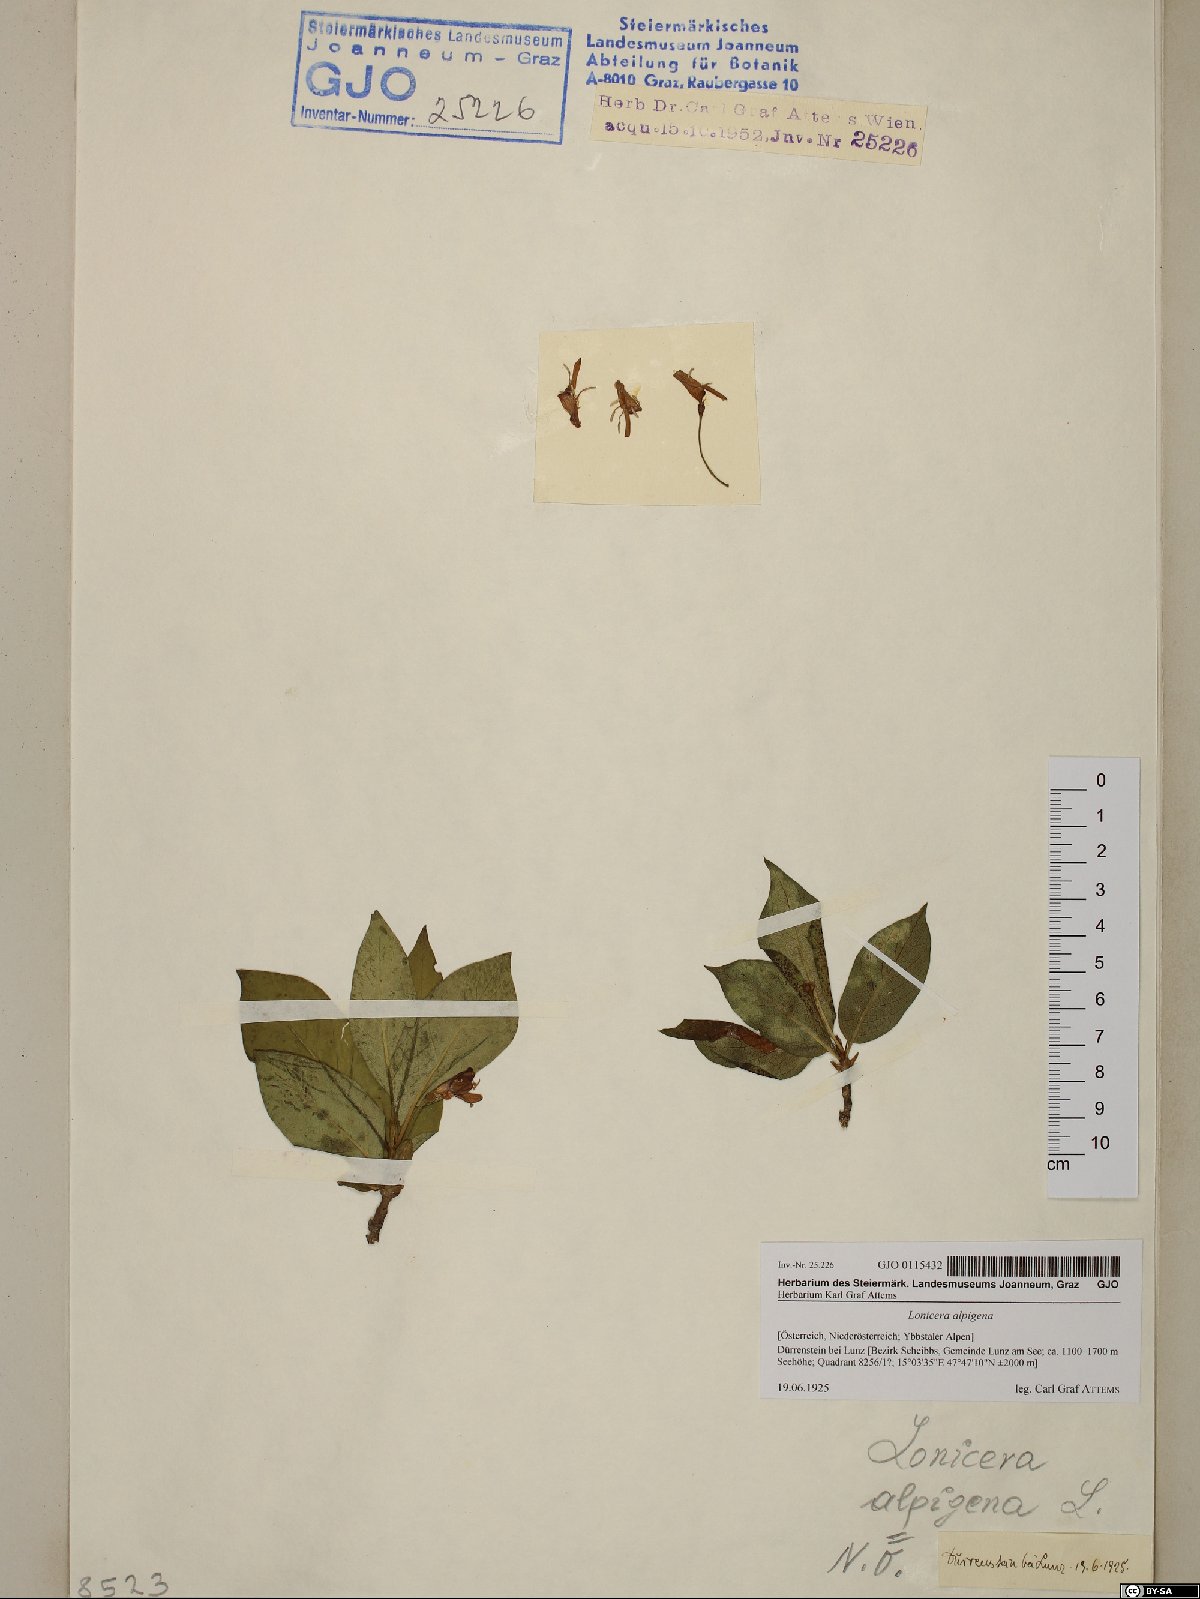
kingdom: Plantae
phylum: Tracheophyta
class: Magnoliopsida
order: Dipsacales
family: Caprifoliaceae
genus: Lonicera
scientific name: Lonicera alpigena
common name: Alpine honeysuckle
